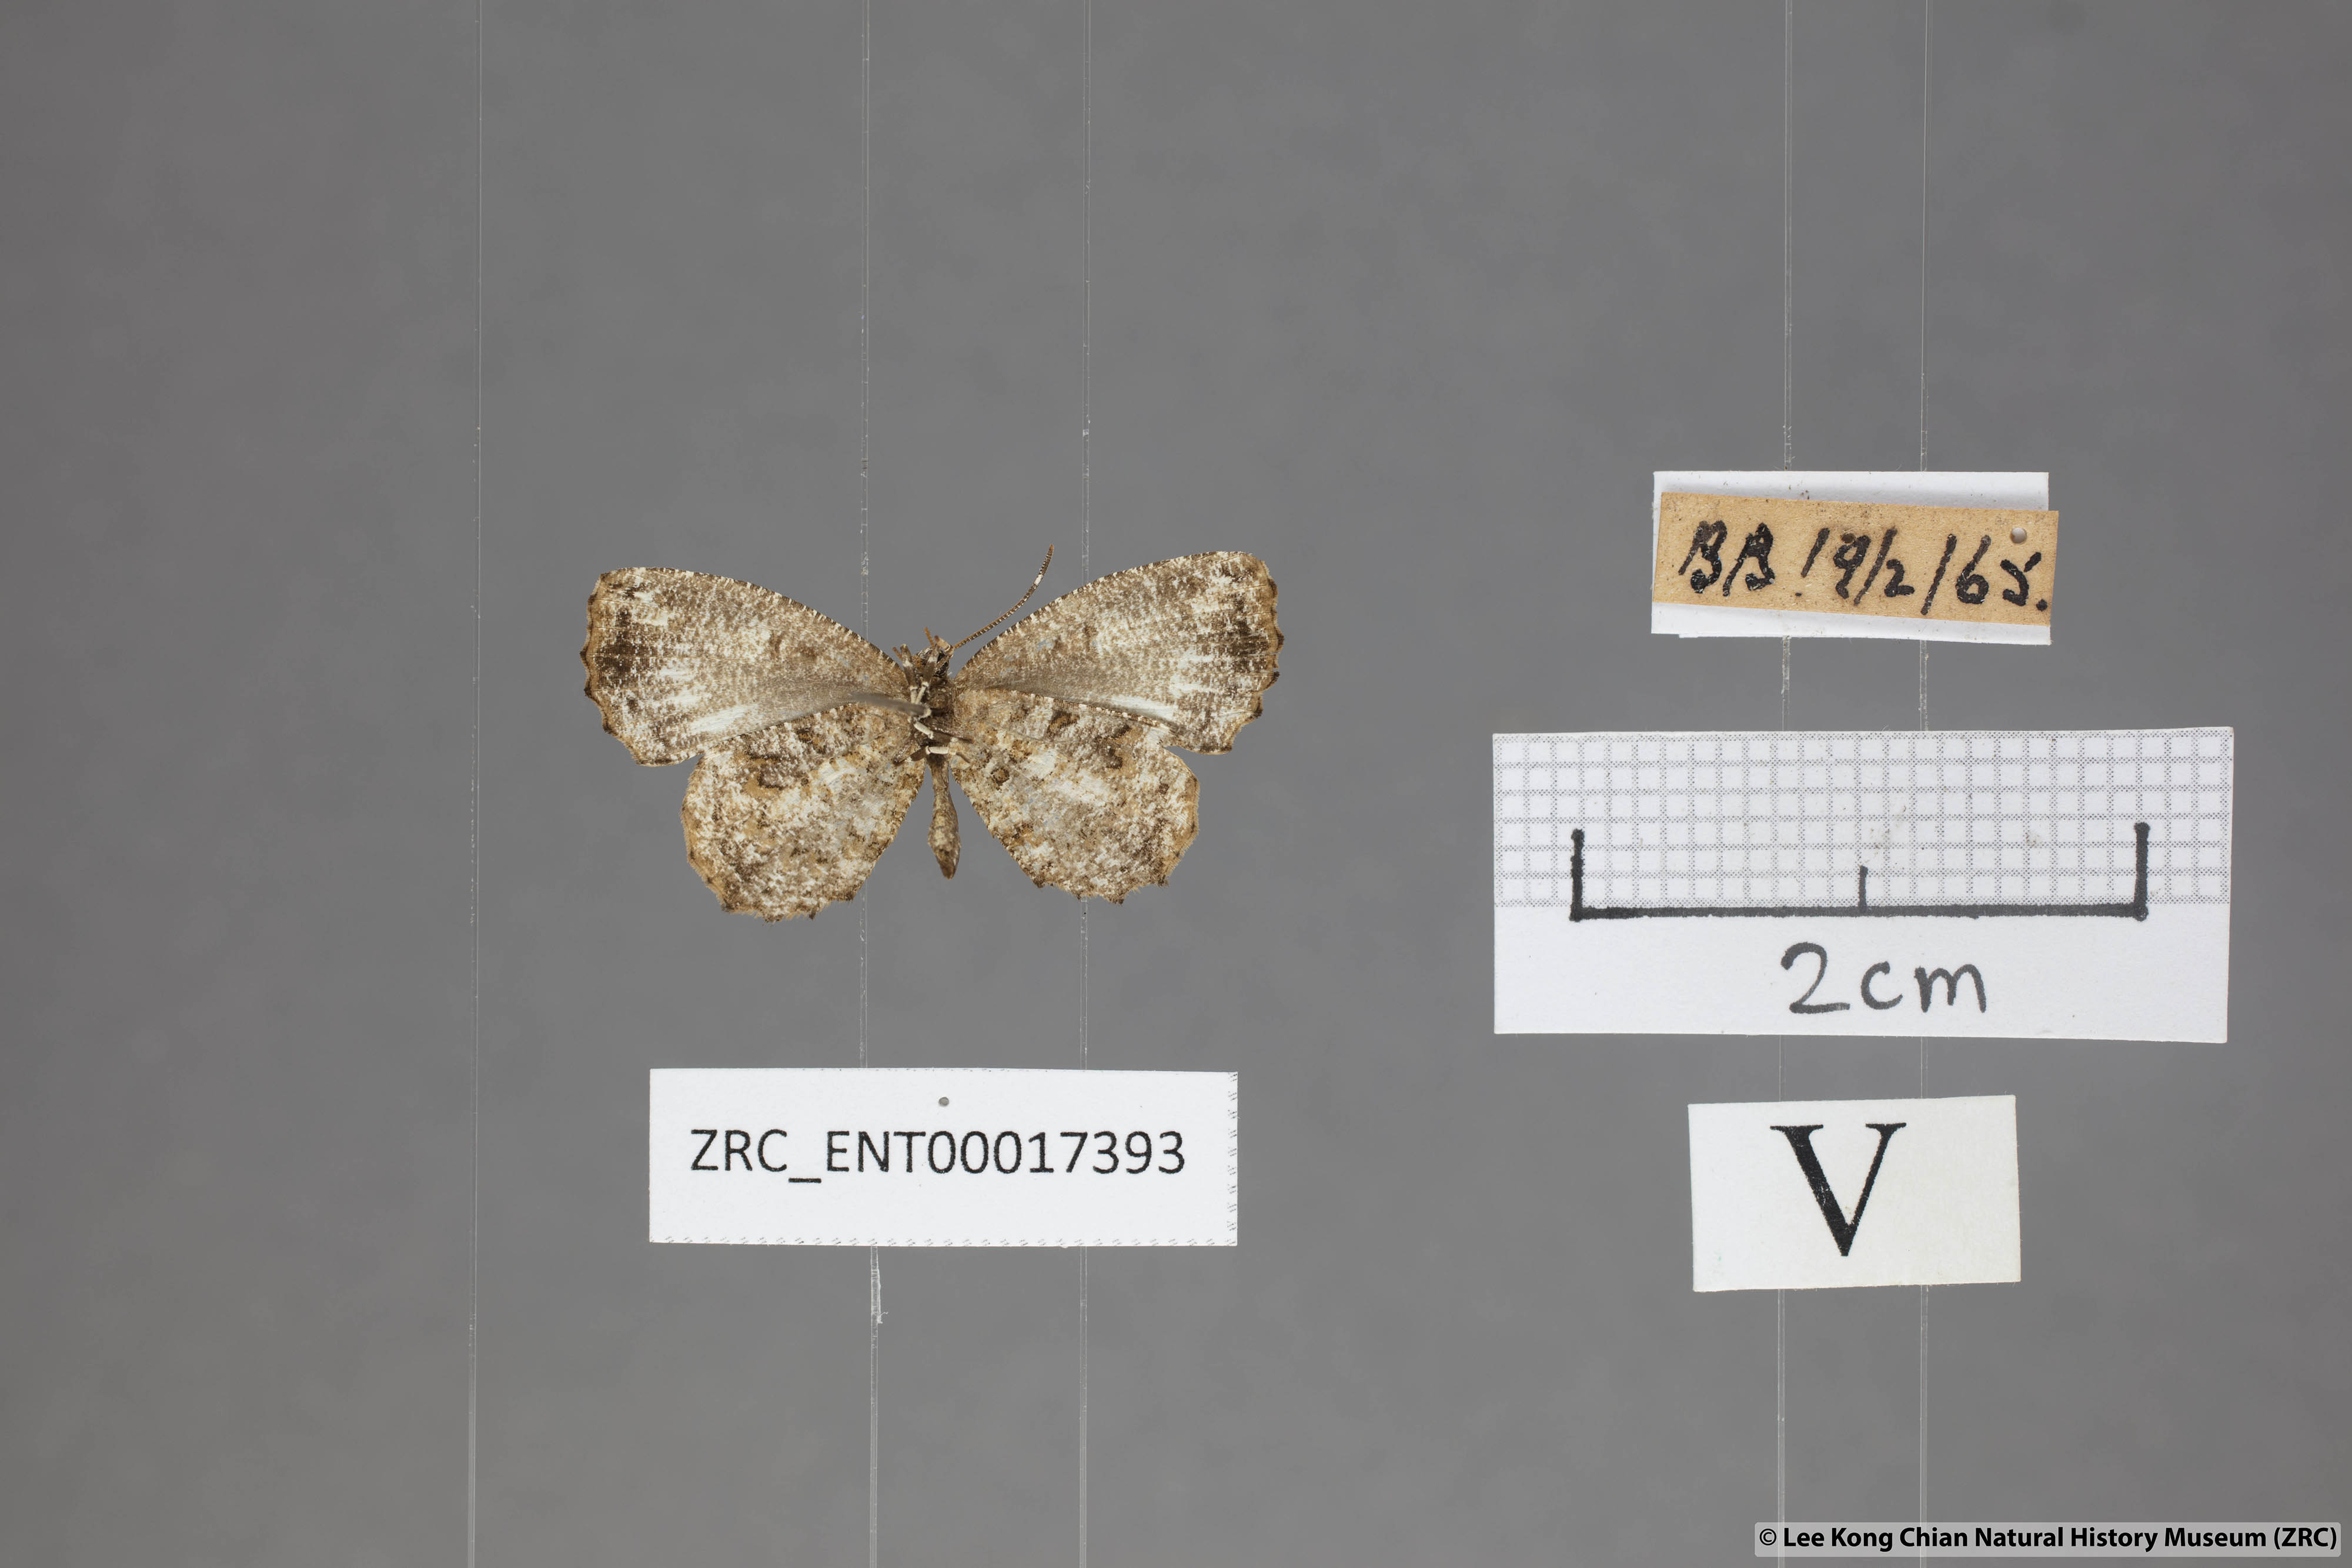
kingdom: Animalia
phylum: Arthropoda
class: Insecta
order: Lepidoptera
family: Lycaenidae
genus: Logania
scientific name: Logania marmorata
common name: Pale mottle
